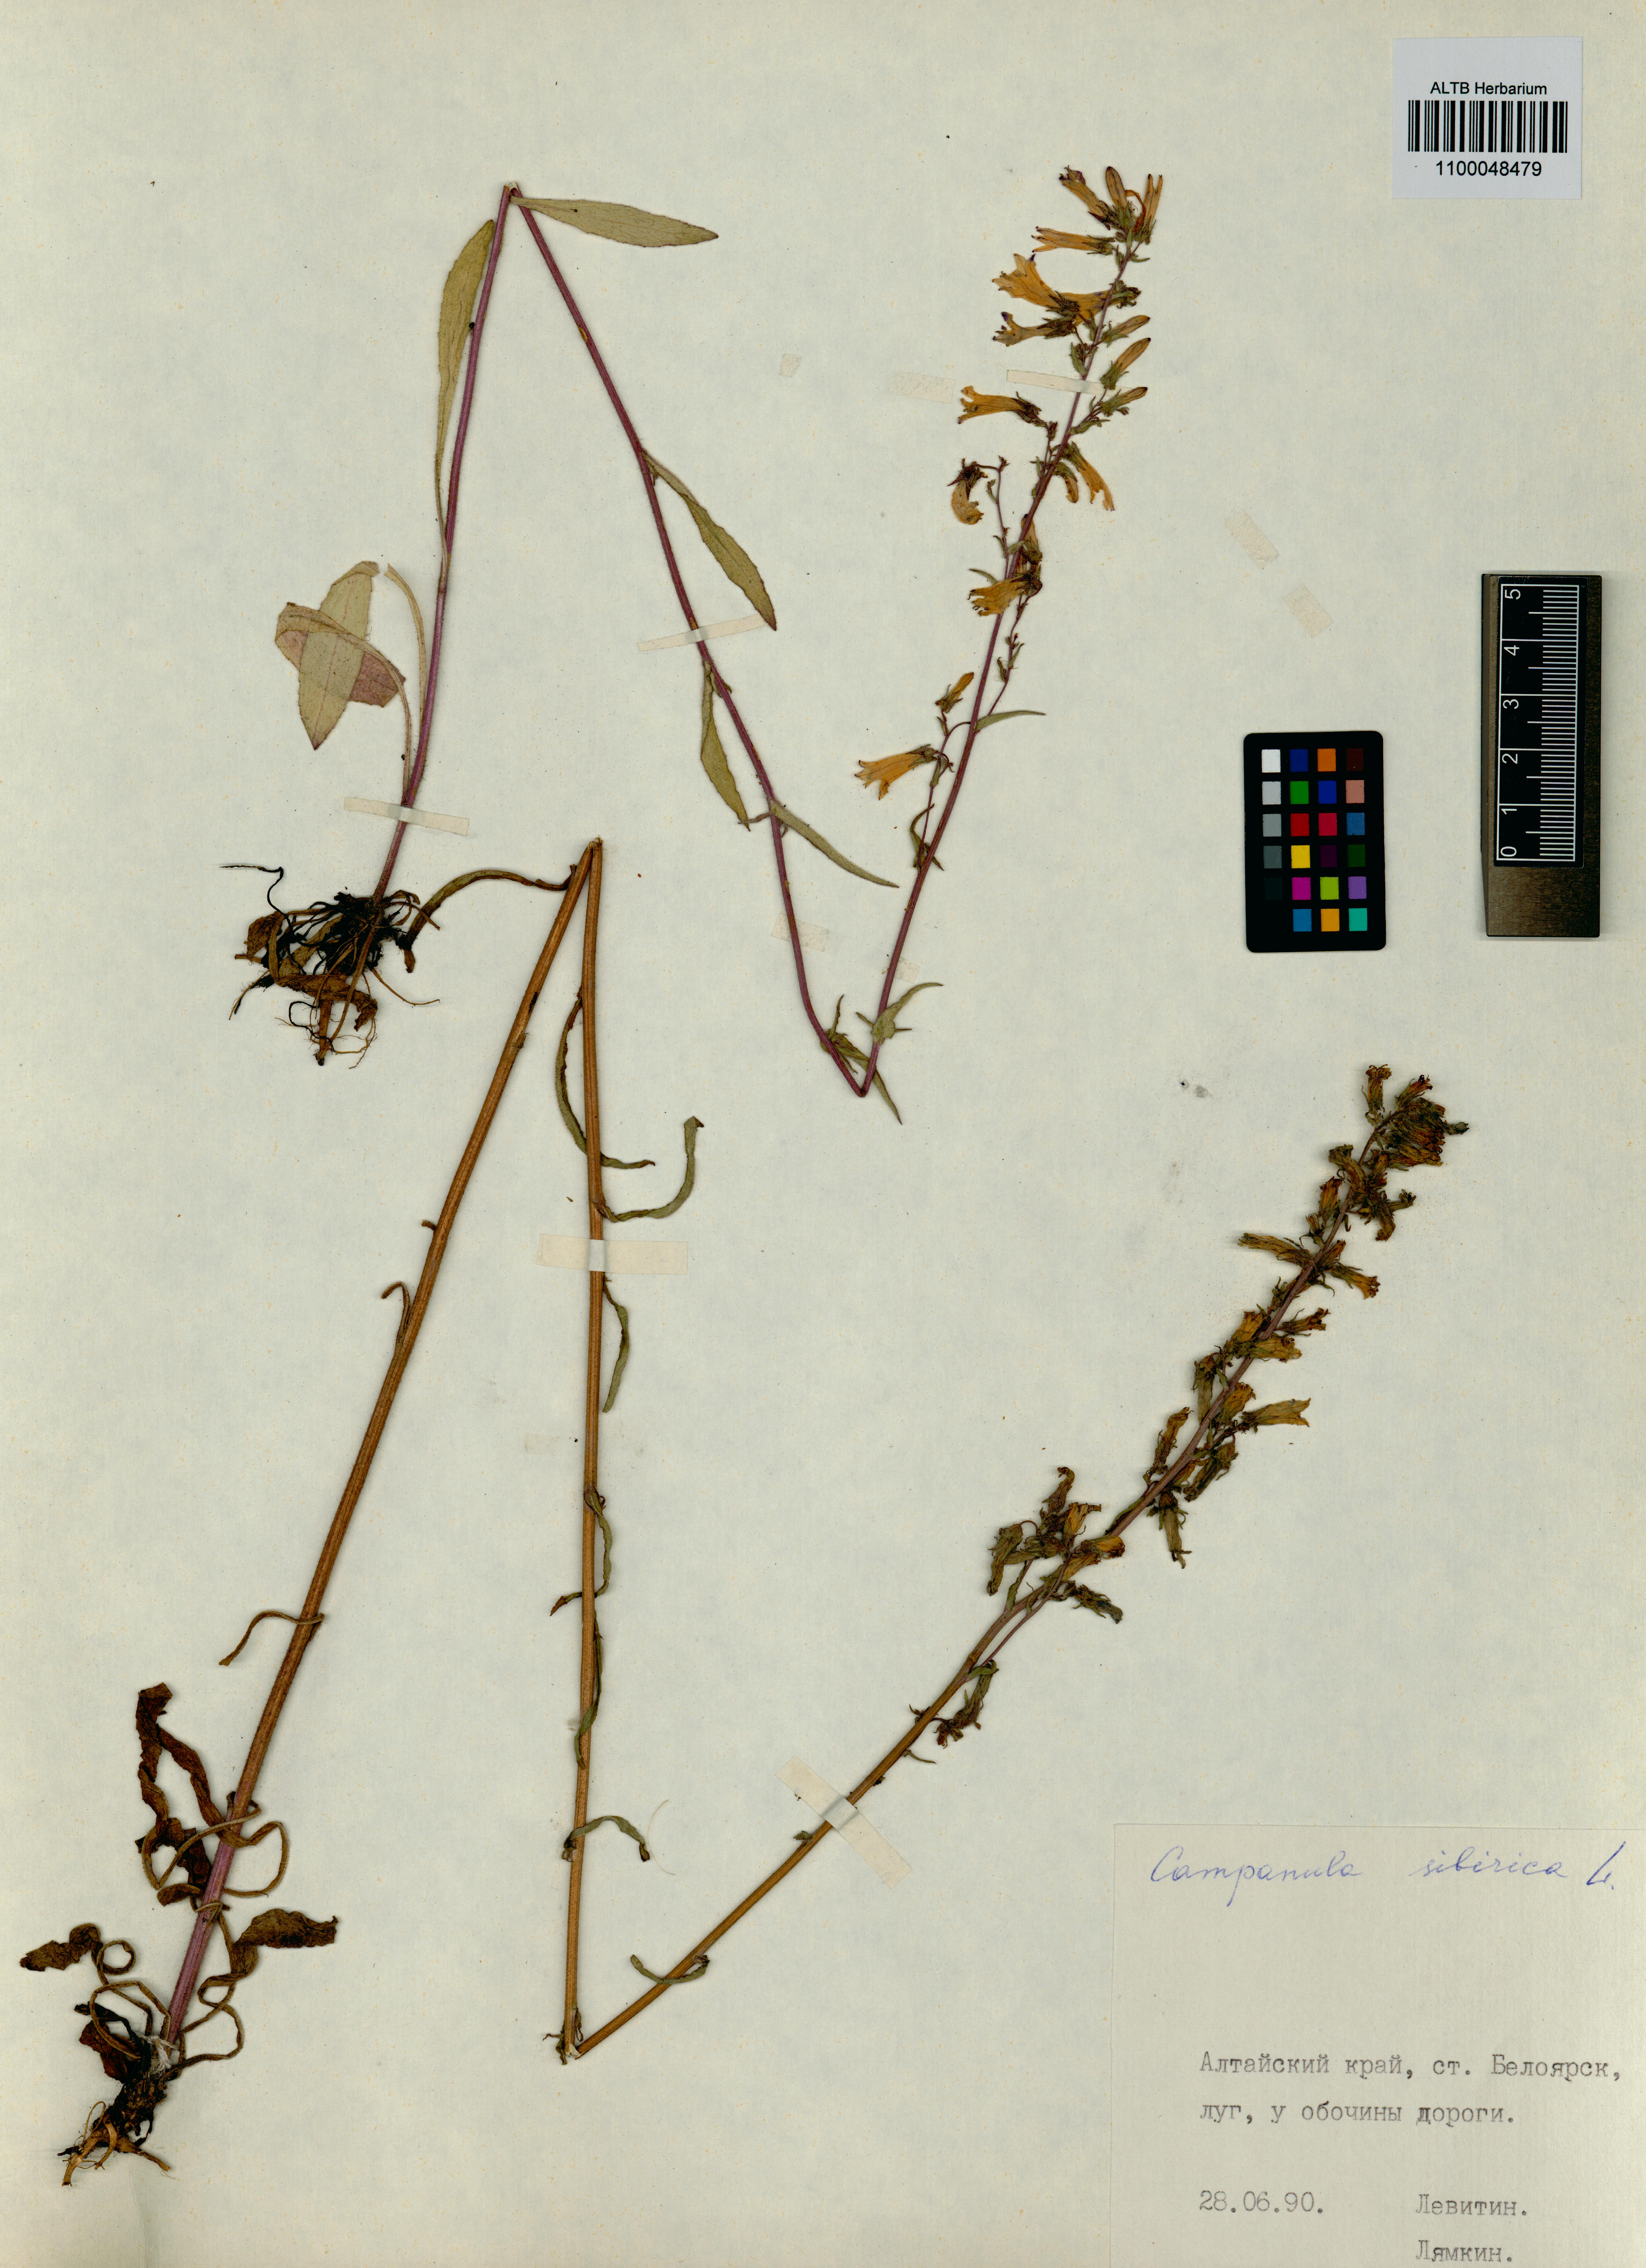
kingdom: Plantae
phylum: Tracheophyta
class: Magnoliopsida
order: Asterales
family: Campanulaceae
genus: Campanula
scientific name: Campanula sibirica
